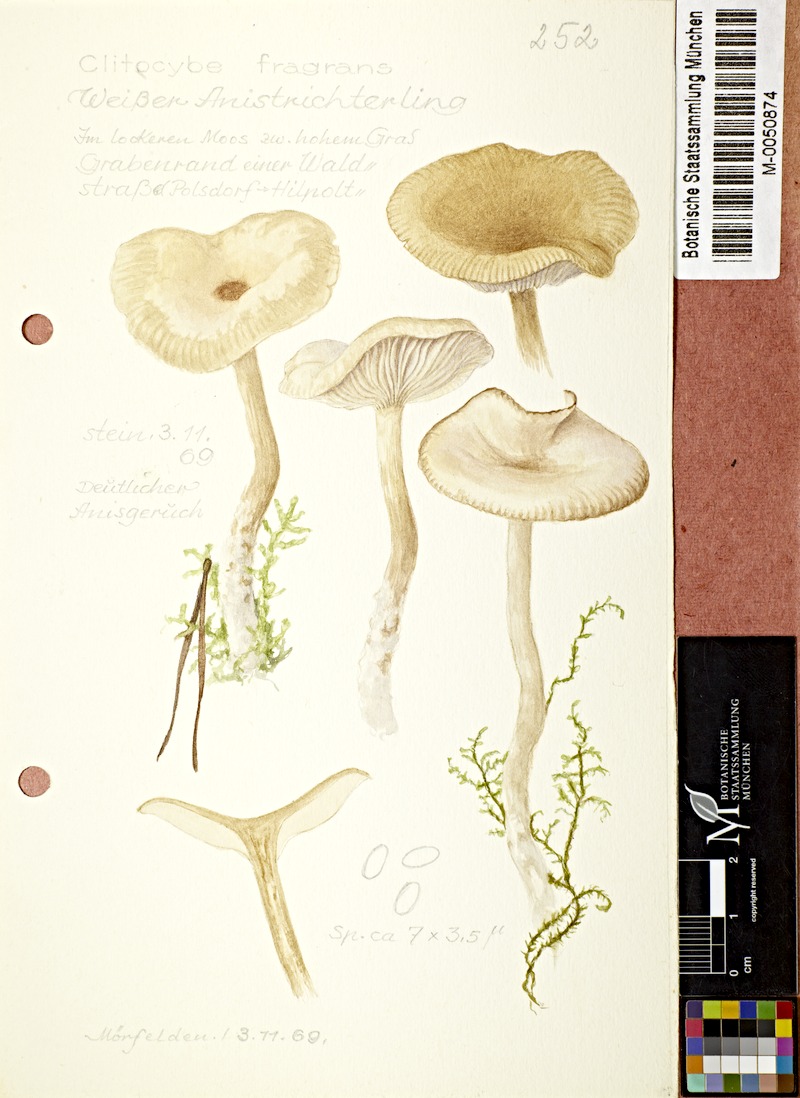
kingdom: Fungi
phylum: Basidiomycota
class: Agaricomycetes
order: Agaricales
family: Tricholomataceae
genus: Clitocybe
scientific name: Clitocybe fragrans
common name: Fragrant funnel
